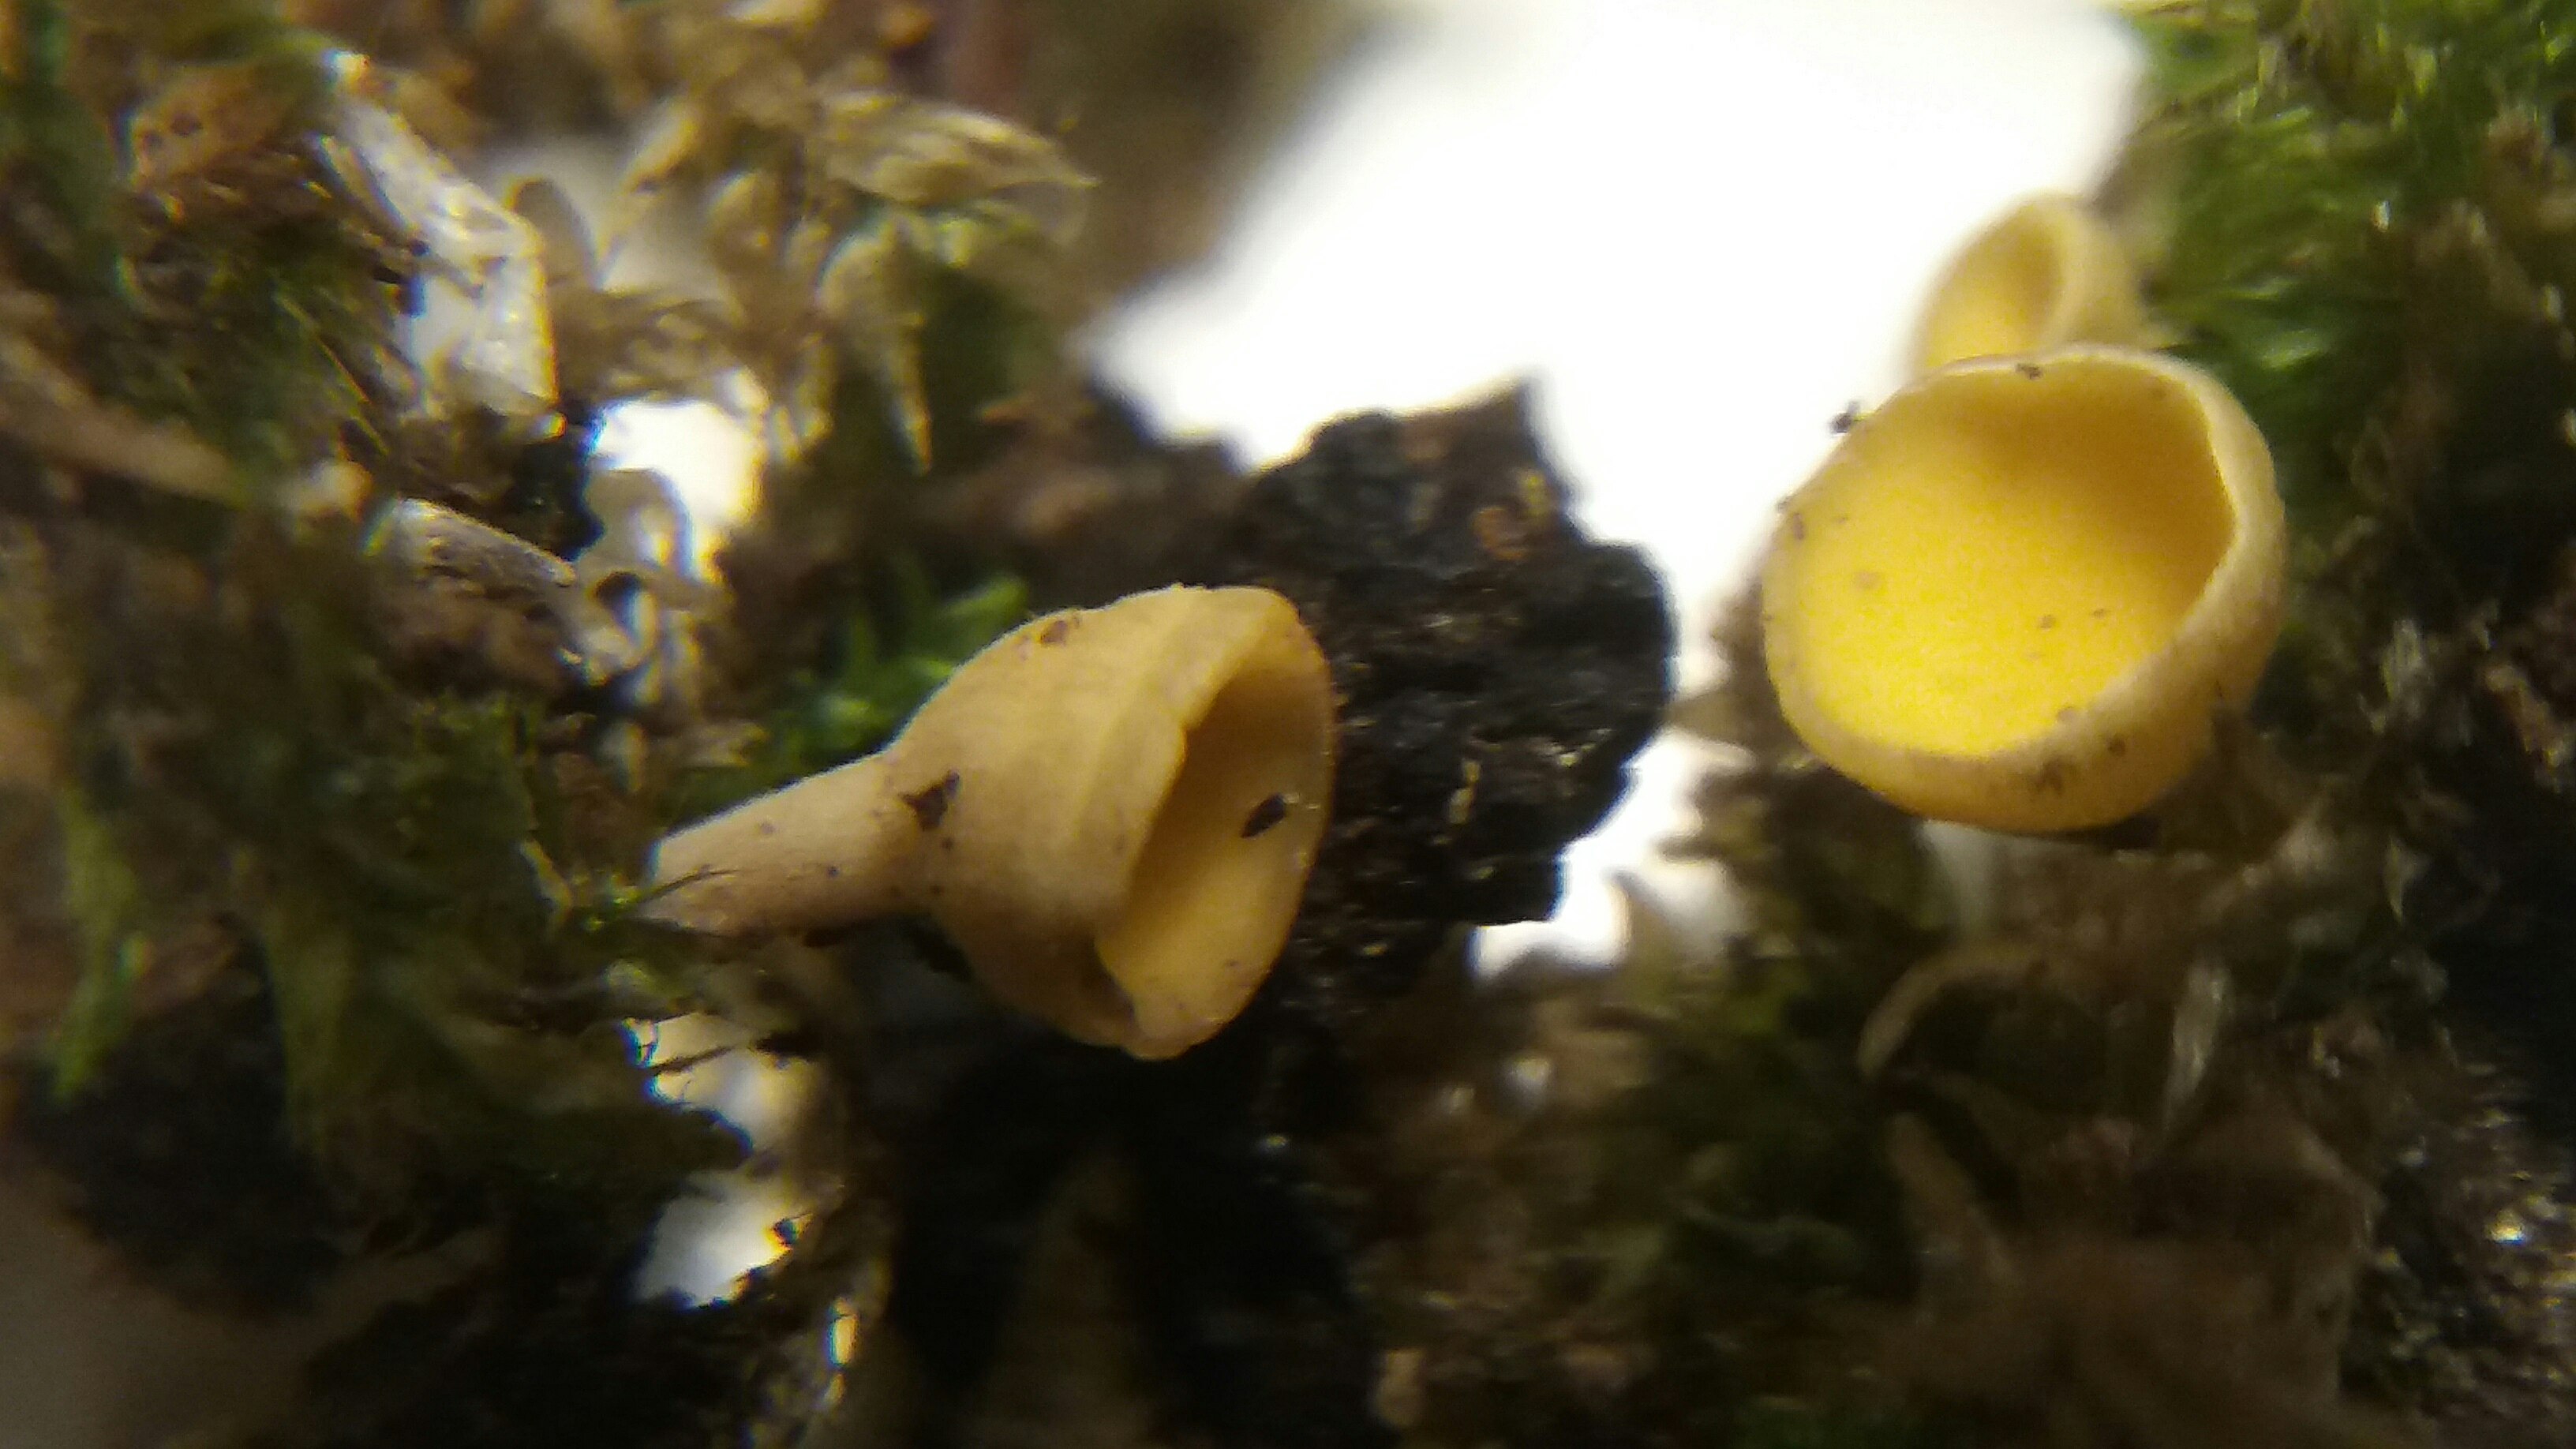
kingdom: Fungi
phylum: Ascomycota
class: Leotiomycetes
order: Helotiales
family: Helotiaceae
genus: Hymenoscyphus
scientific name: Hymenoscyphus
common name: stilkskive
